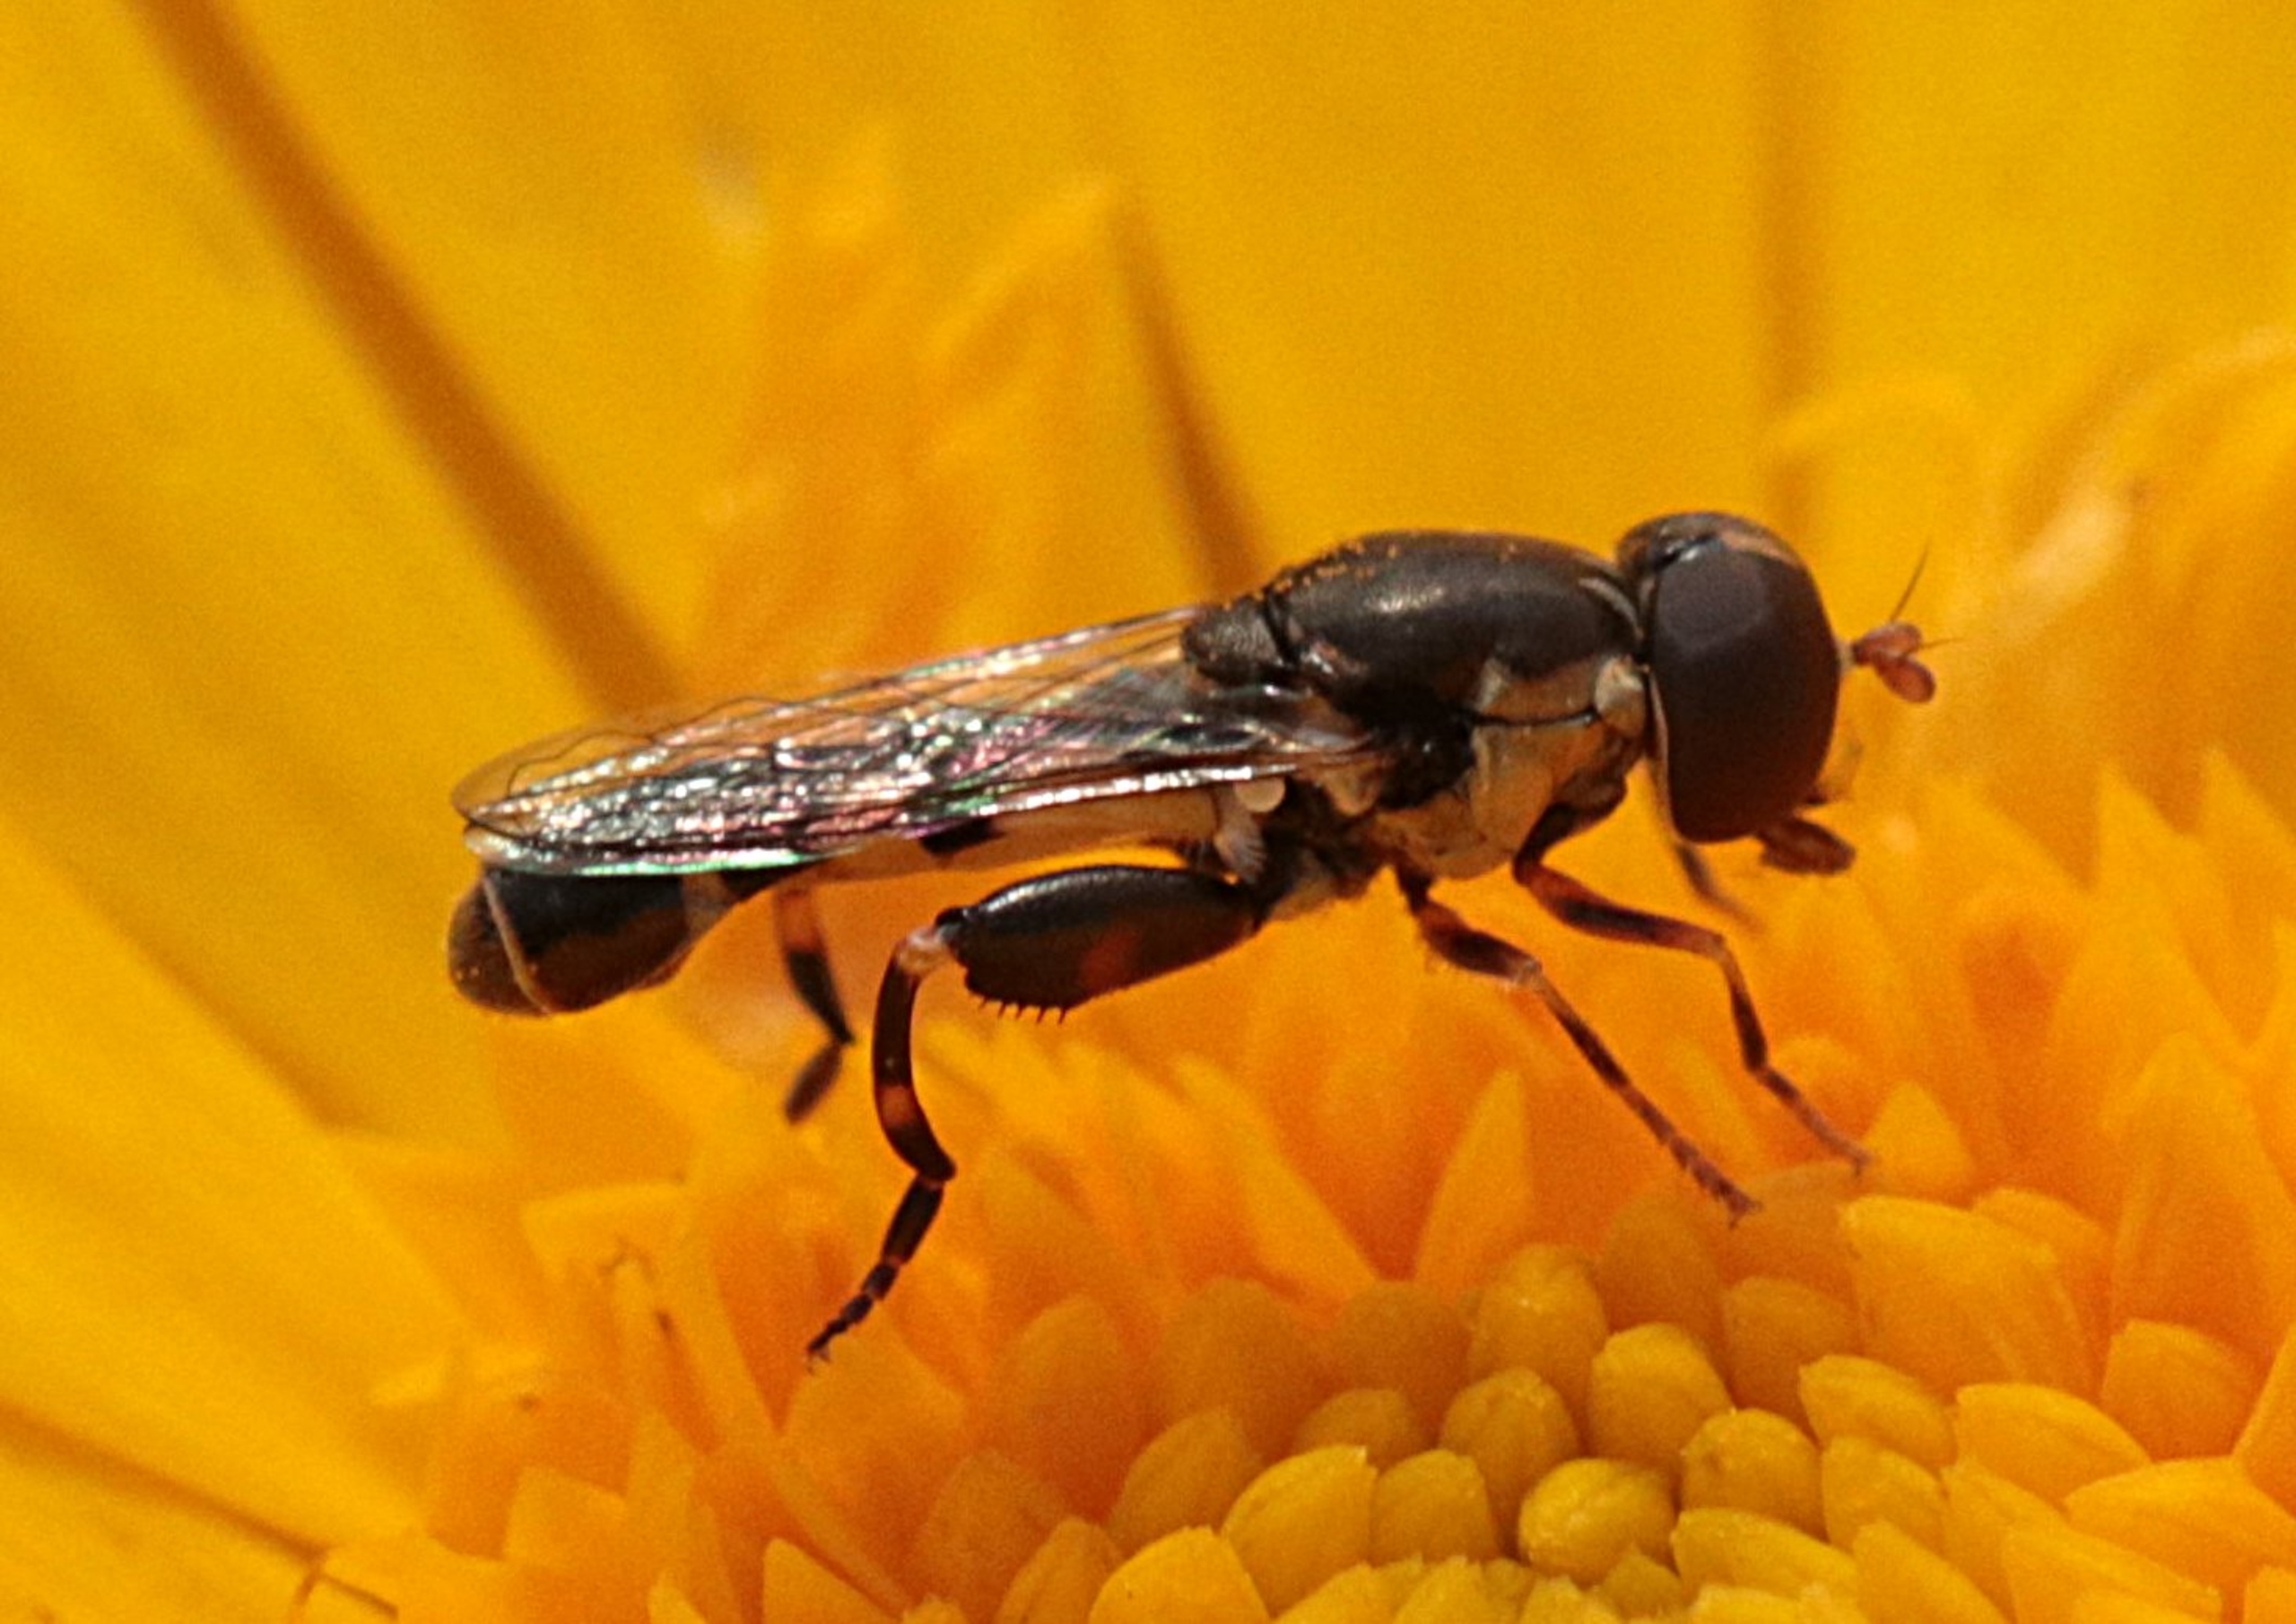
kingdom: Animalia
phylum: Arthropoda
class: Insecta
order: Diptera
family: Syrphidae
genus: Syritta
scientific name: Syritta pipiens
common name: Kompost-svirreflue
